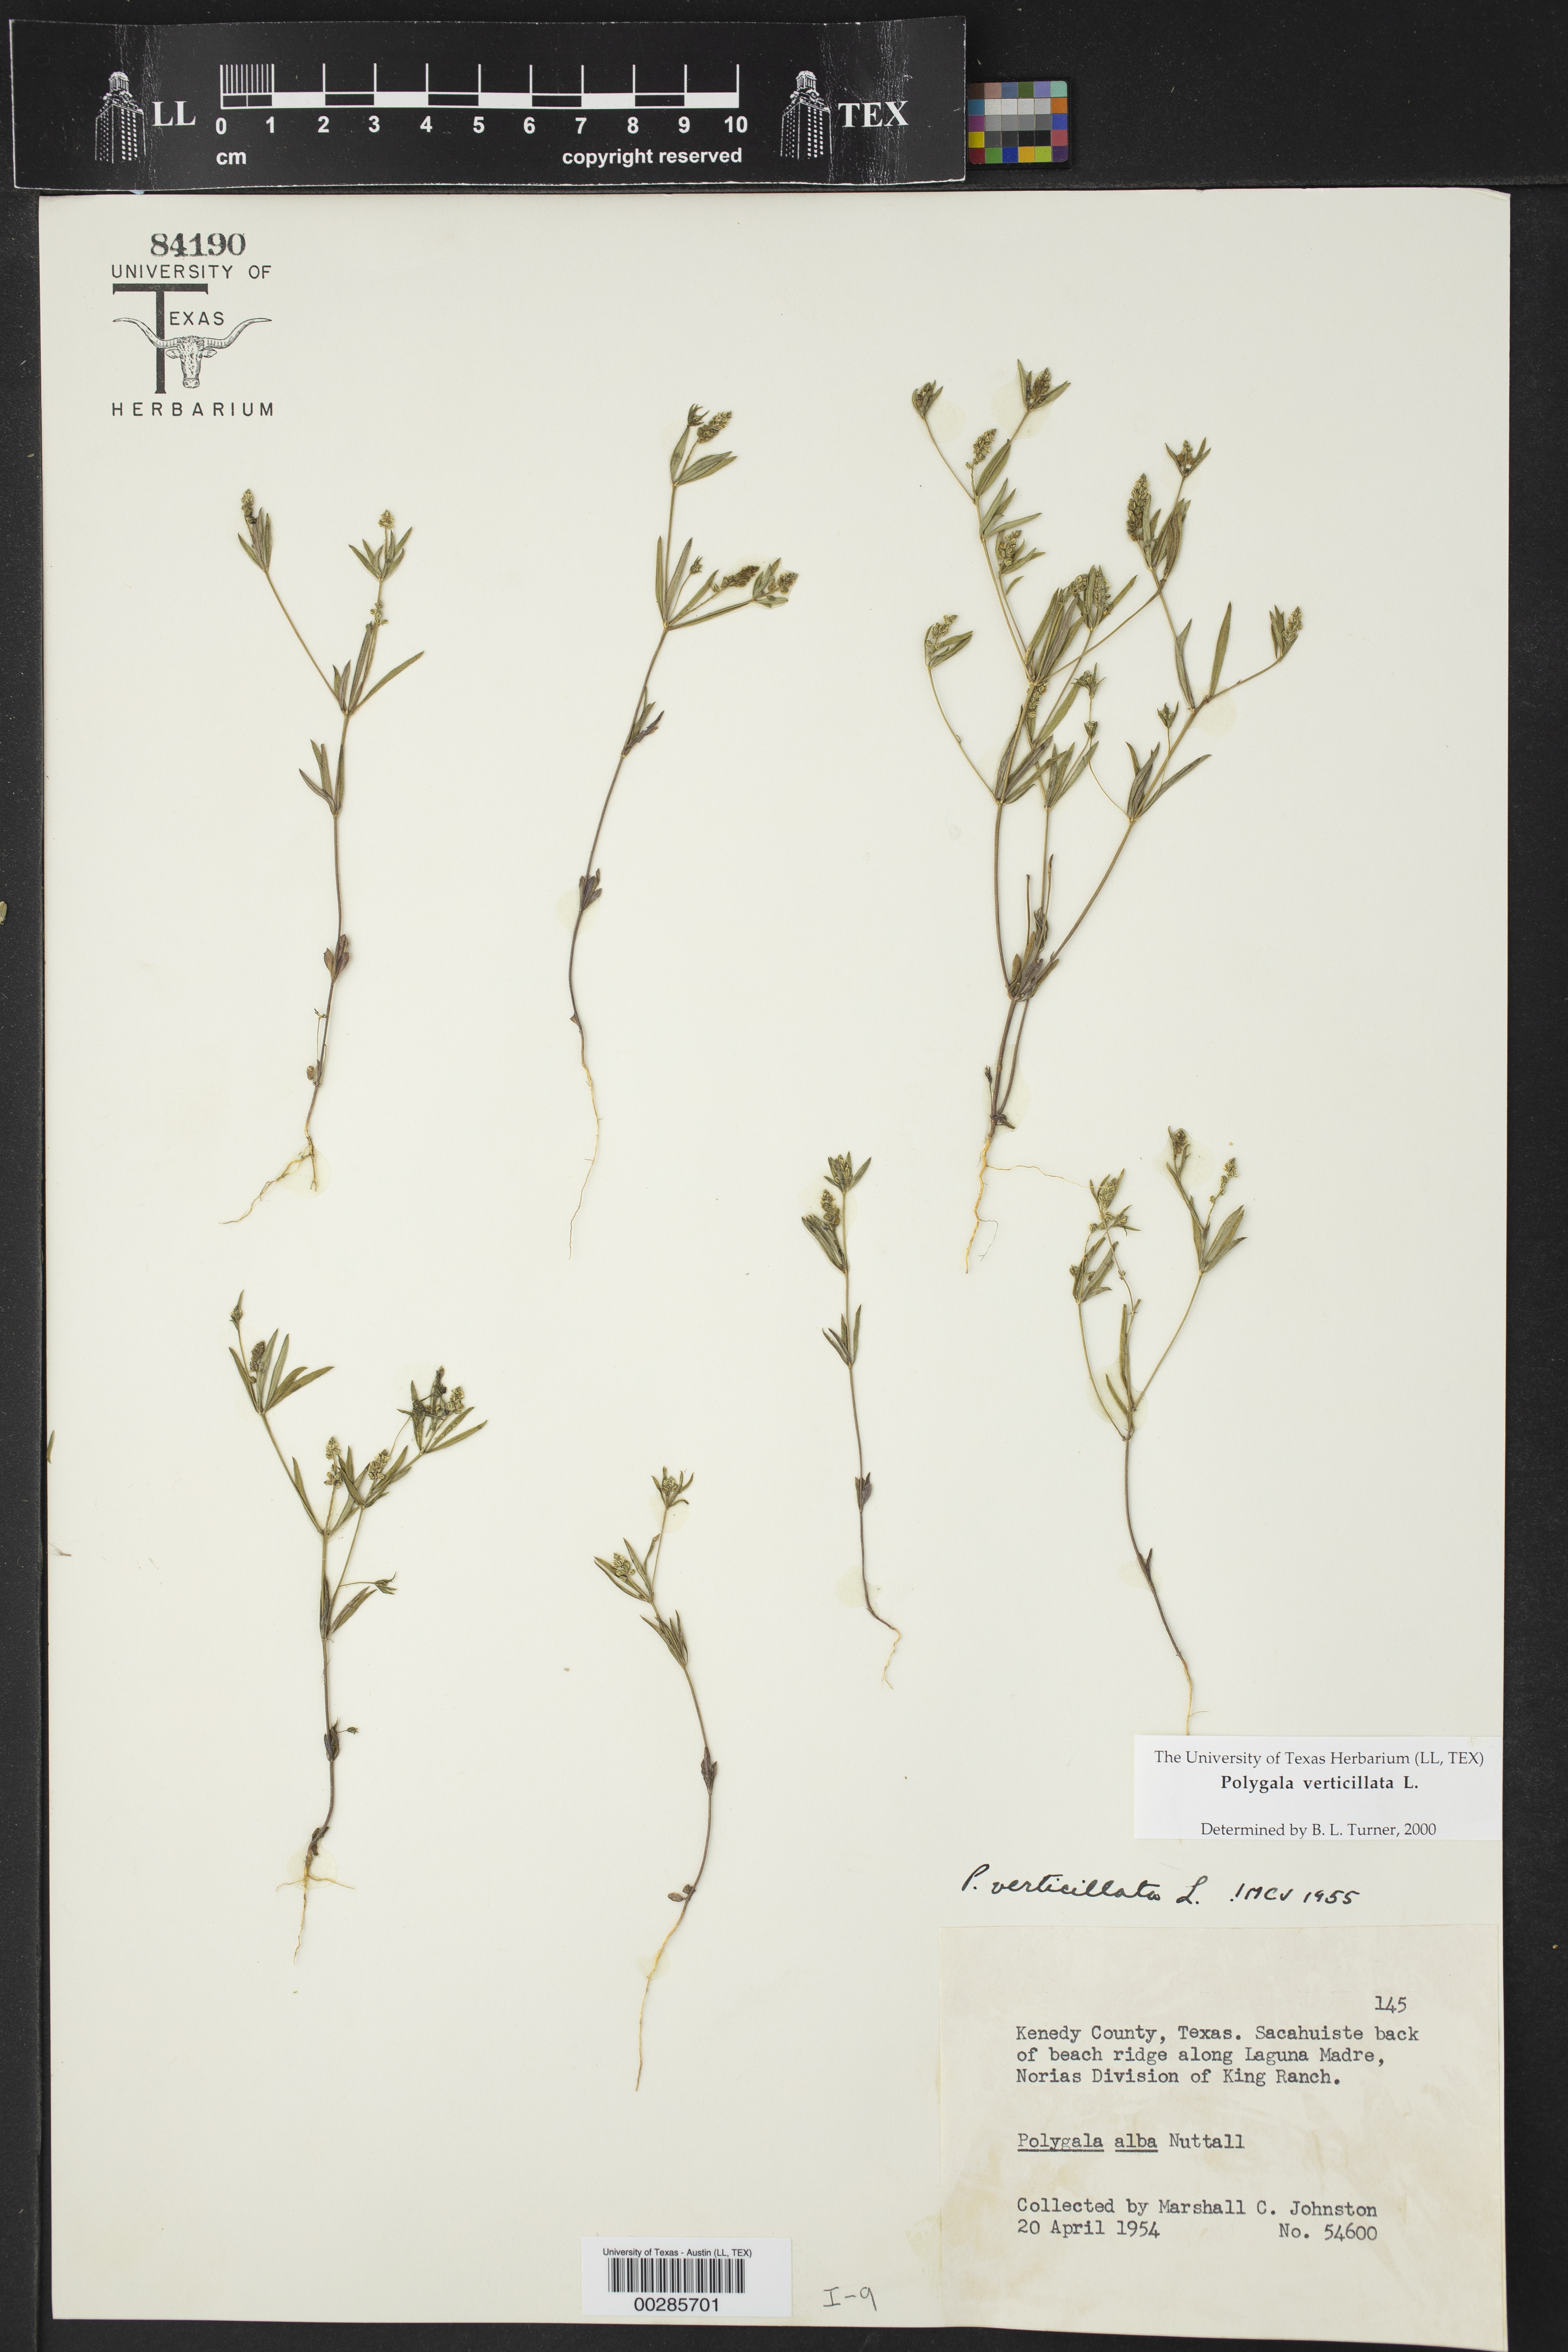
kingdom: Plantae
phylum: Tracheophyta
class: Magnoliopsida
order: Fabales
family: Polygalaceae
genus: Polygala
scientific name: Polygala verticillata
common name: Whorl milkwort
